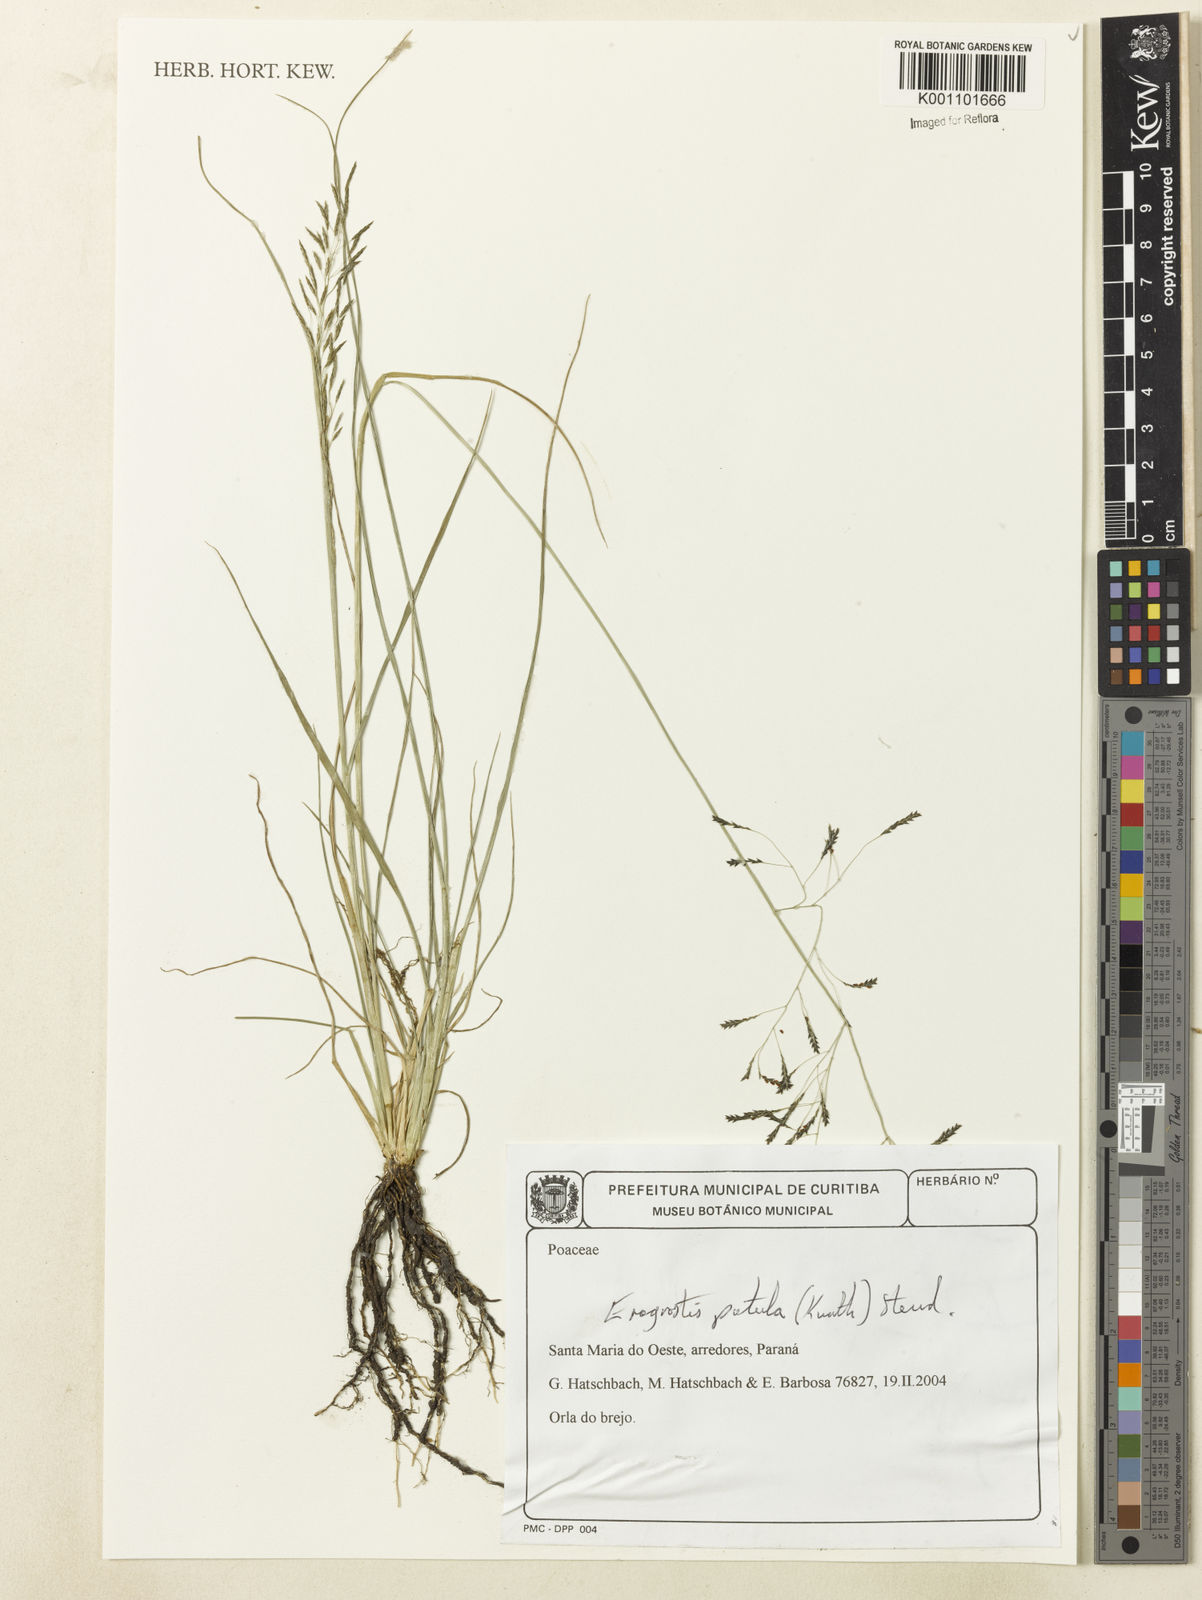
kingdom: Plantae
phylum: Tracheophyta
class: Liliopsida
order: Poales
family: Poaceae
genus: Eragrostis
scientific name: Eragrostis patula
